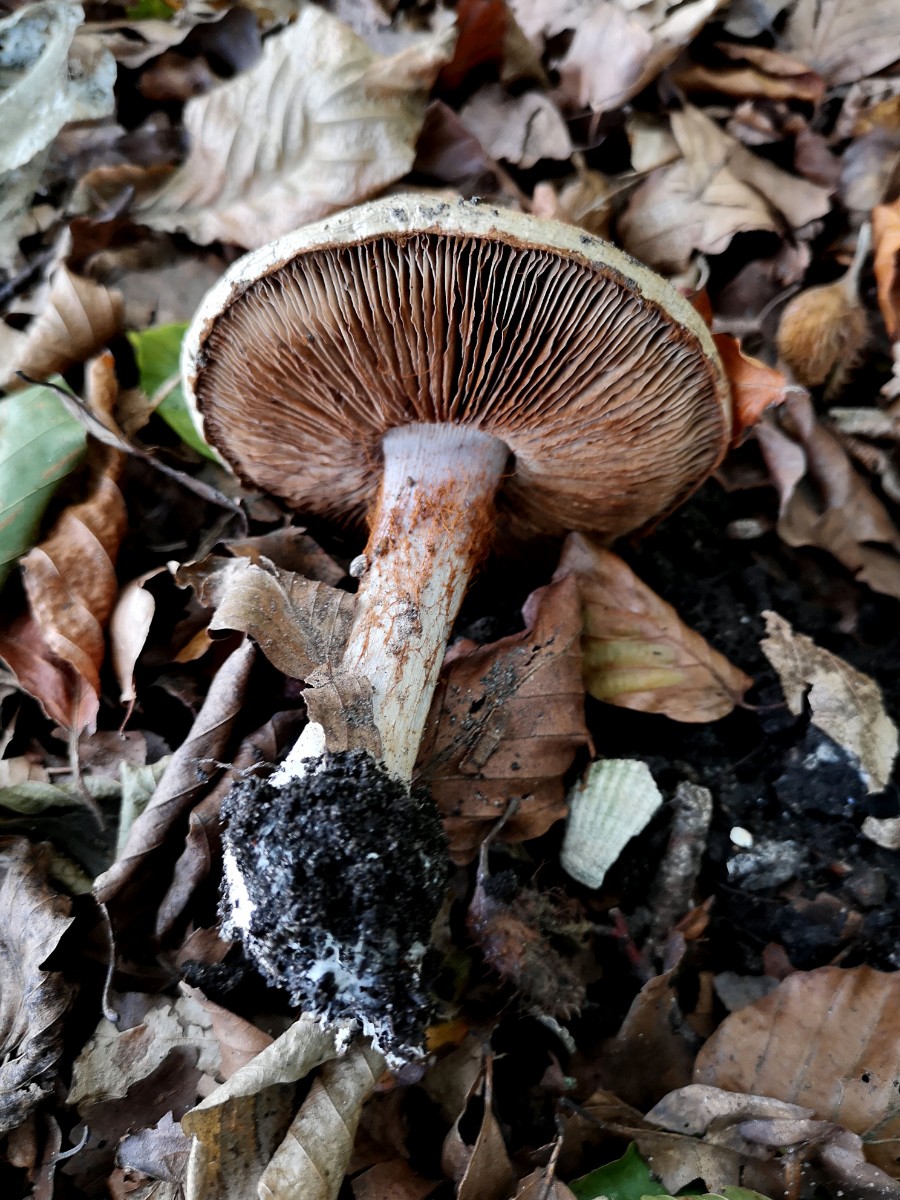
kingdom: Fungi
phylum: Basidiomycota
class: Agaricomycetes
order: Agaricales
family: Cortinariaceae
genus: Cortinarius
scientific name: Cortinarius anserinus
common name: bøge-slørhat
